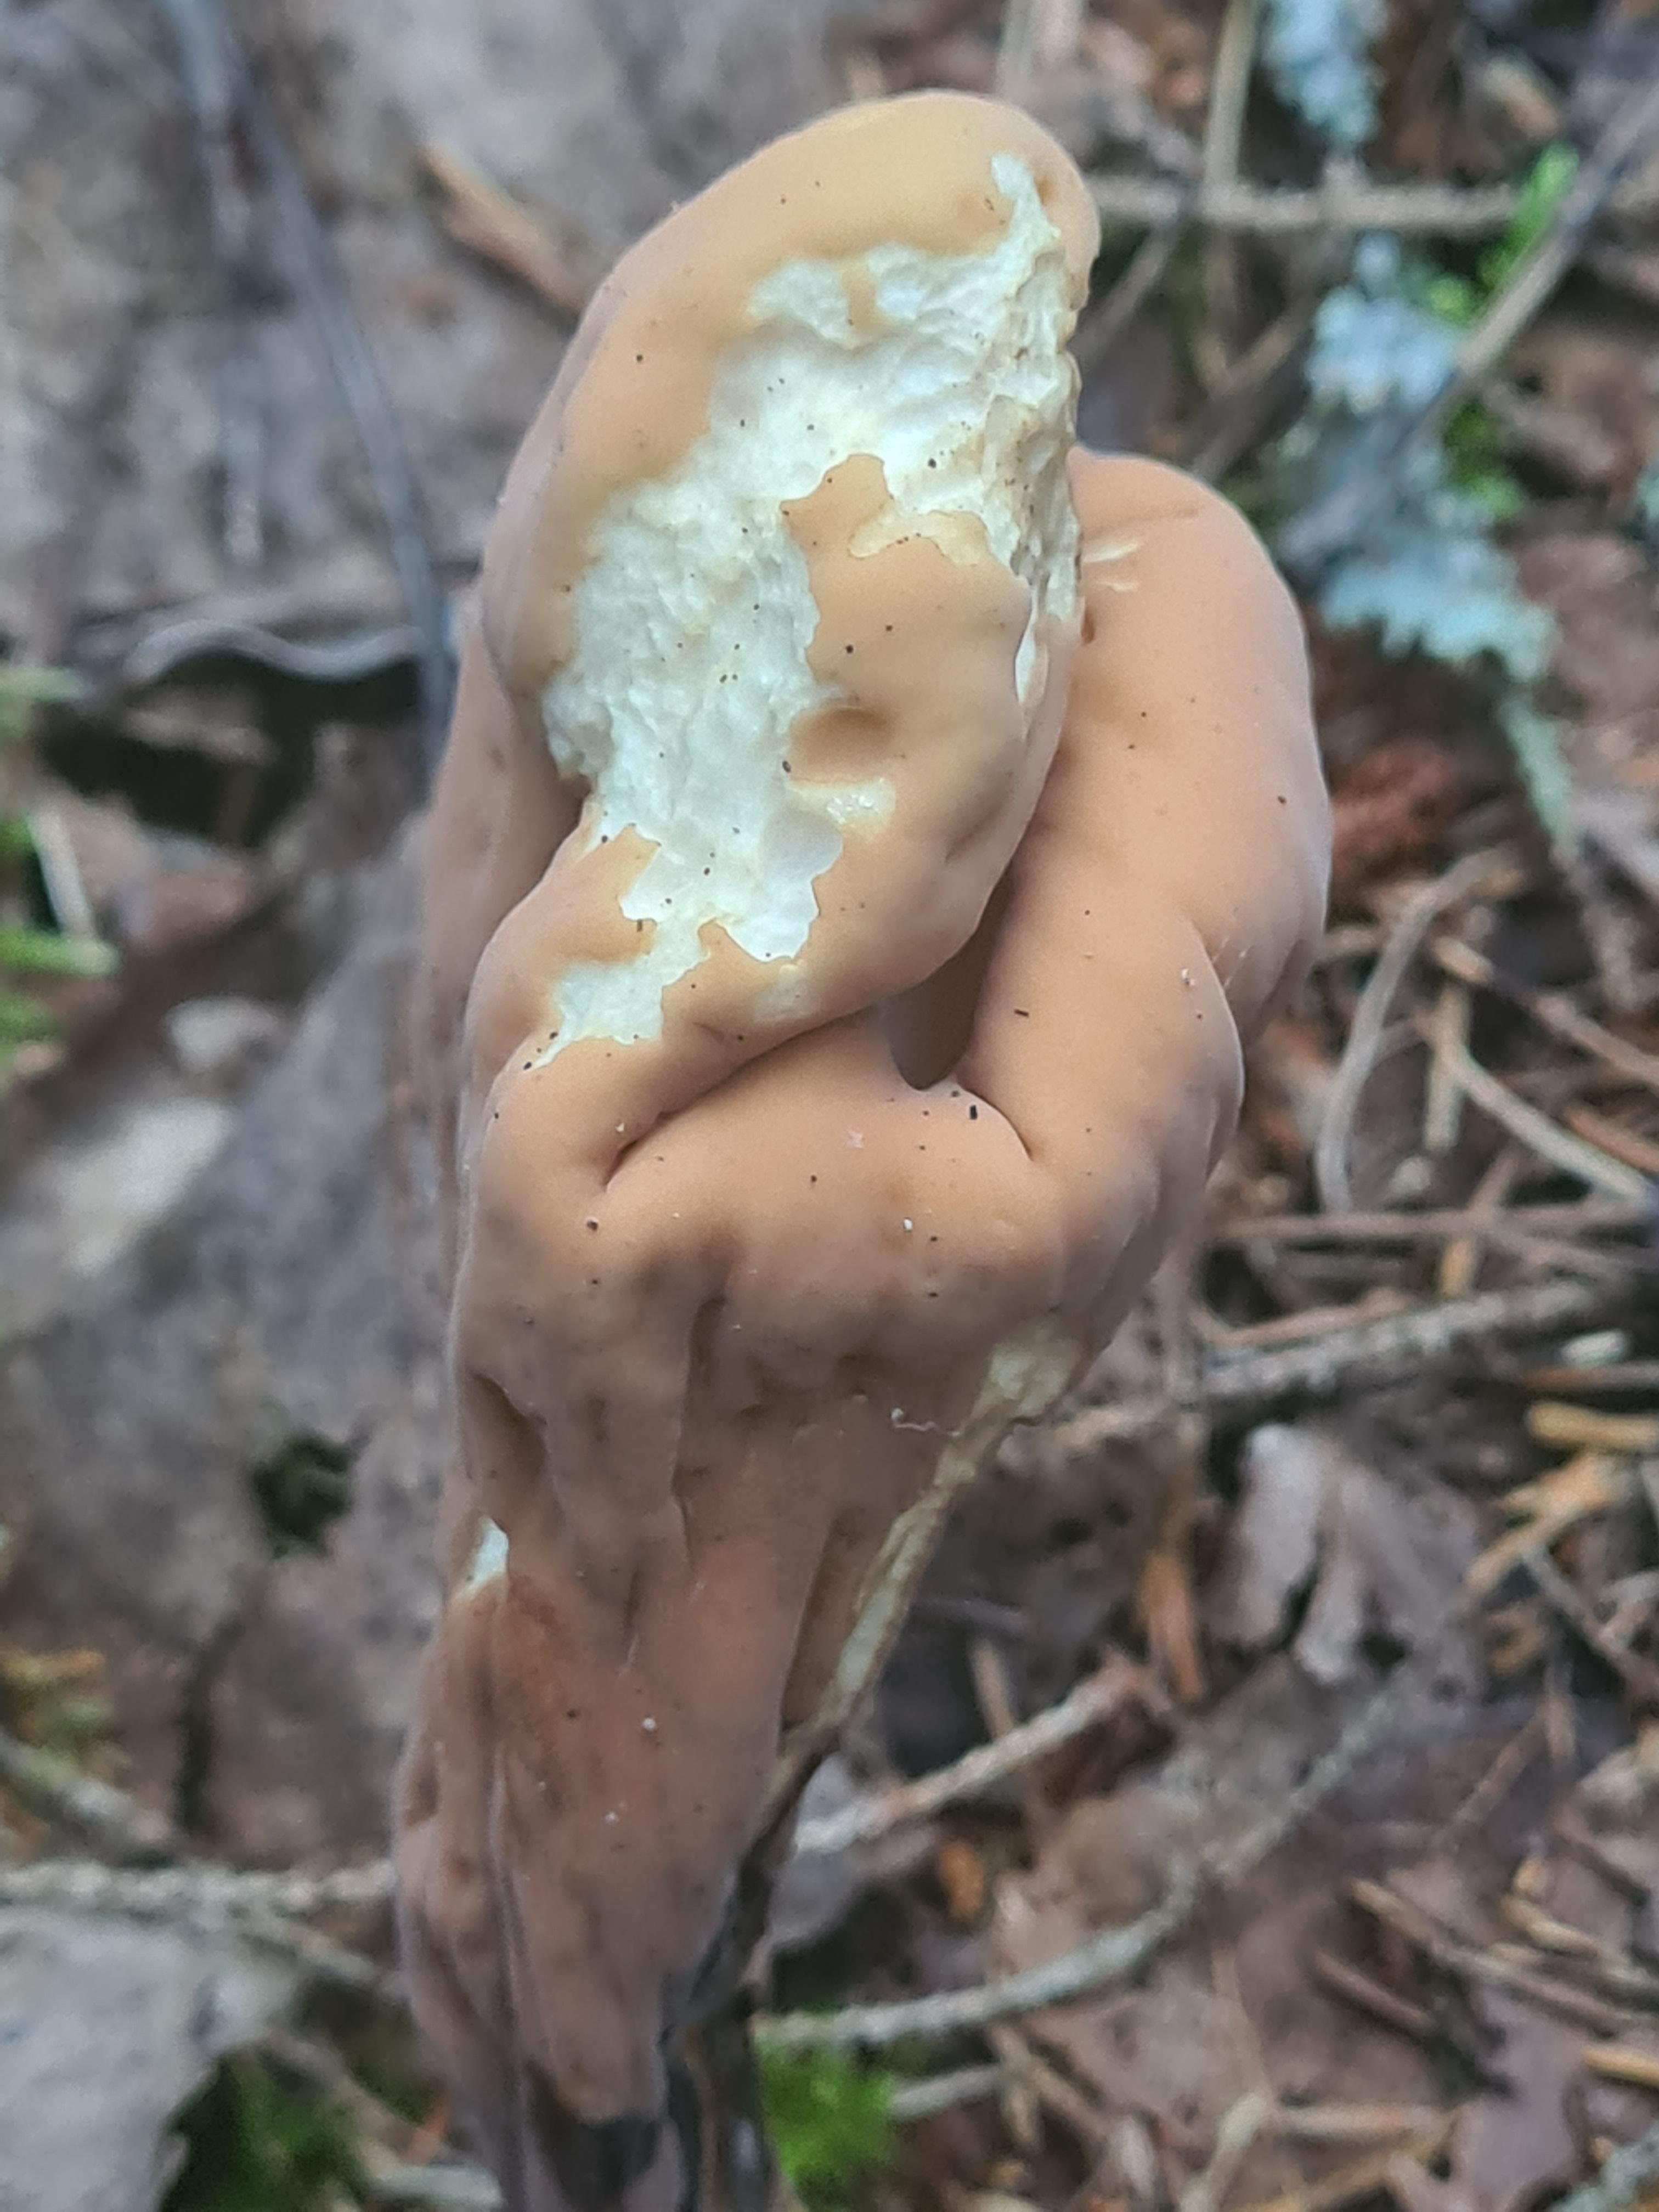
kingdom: Fungi
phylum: Basidiomycota
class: Agaricomycetes
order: Gomphales
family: Clavariadelphaceae
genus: Clavariadelphus
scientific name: Clavariadelphus pistillaris
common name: herkules-kæmpekølle
